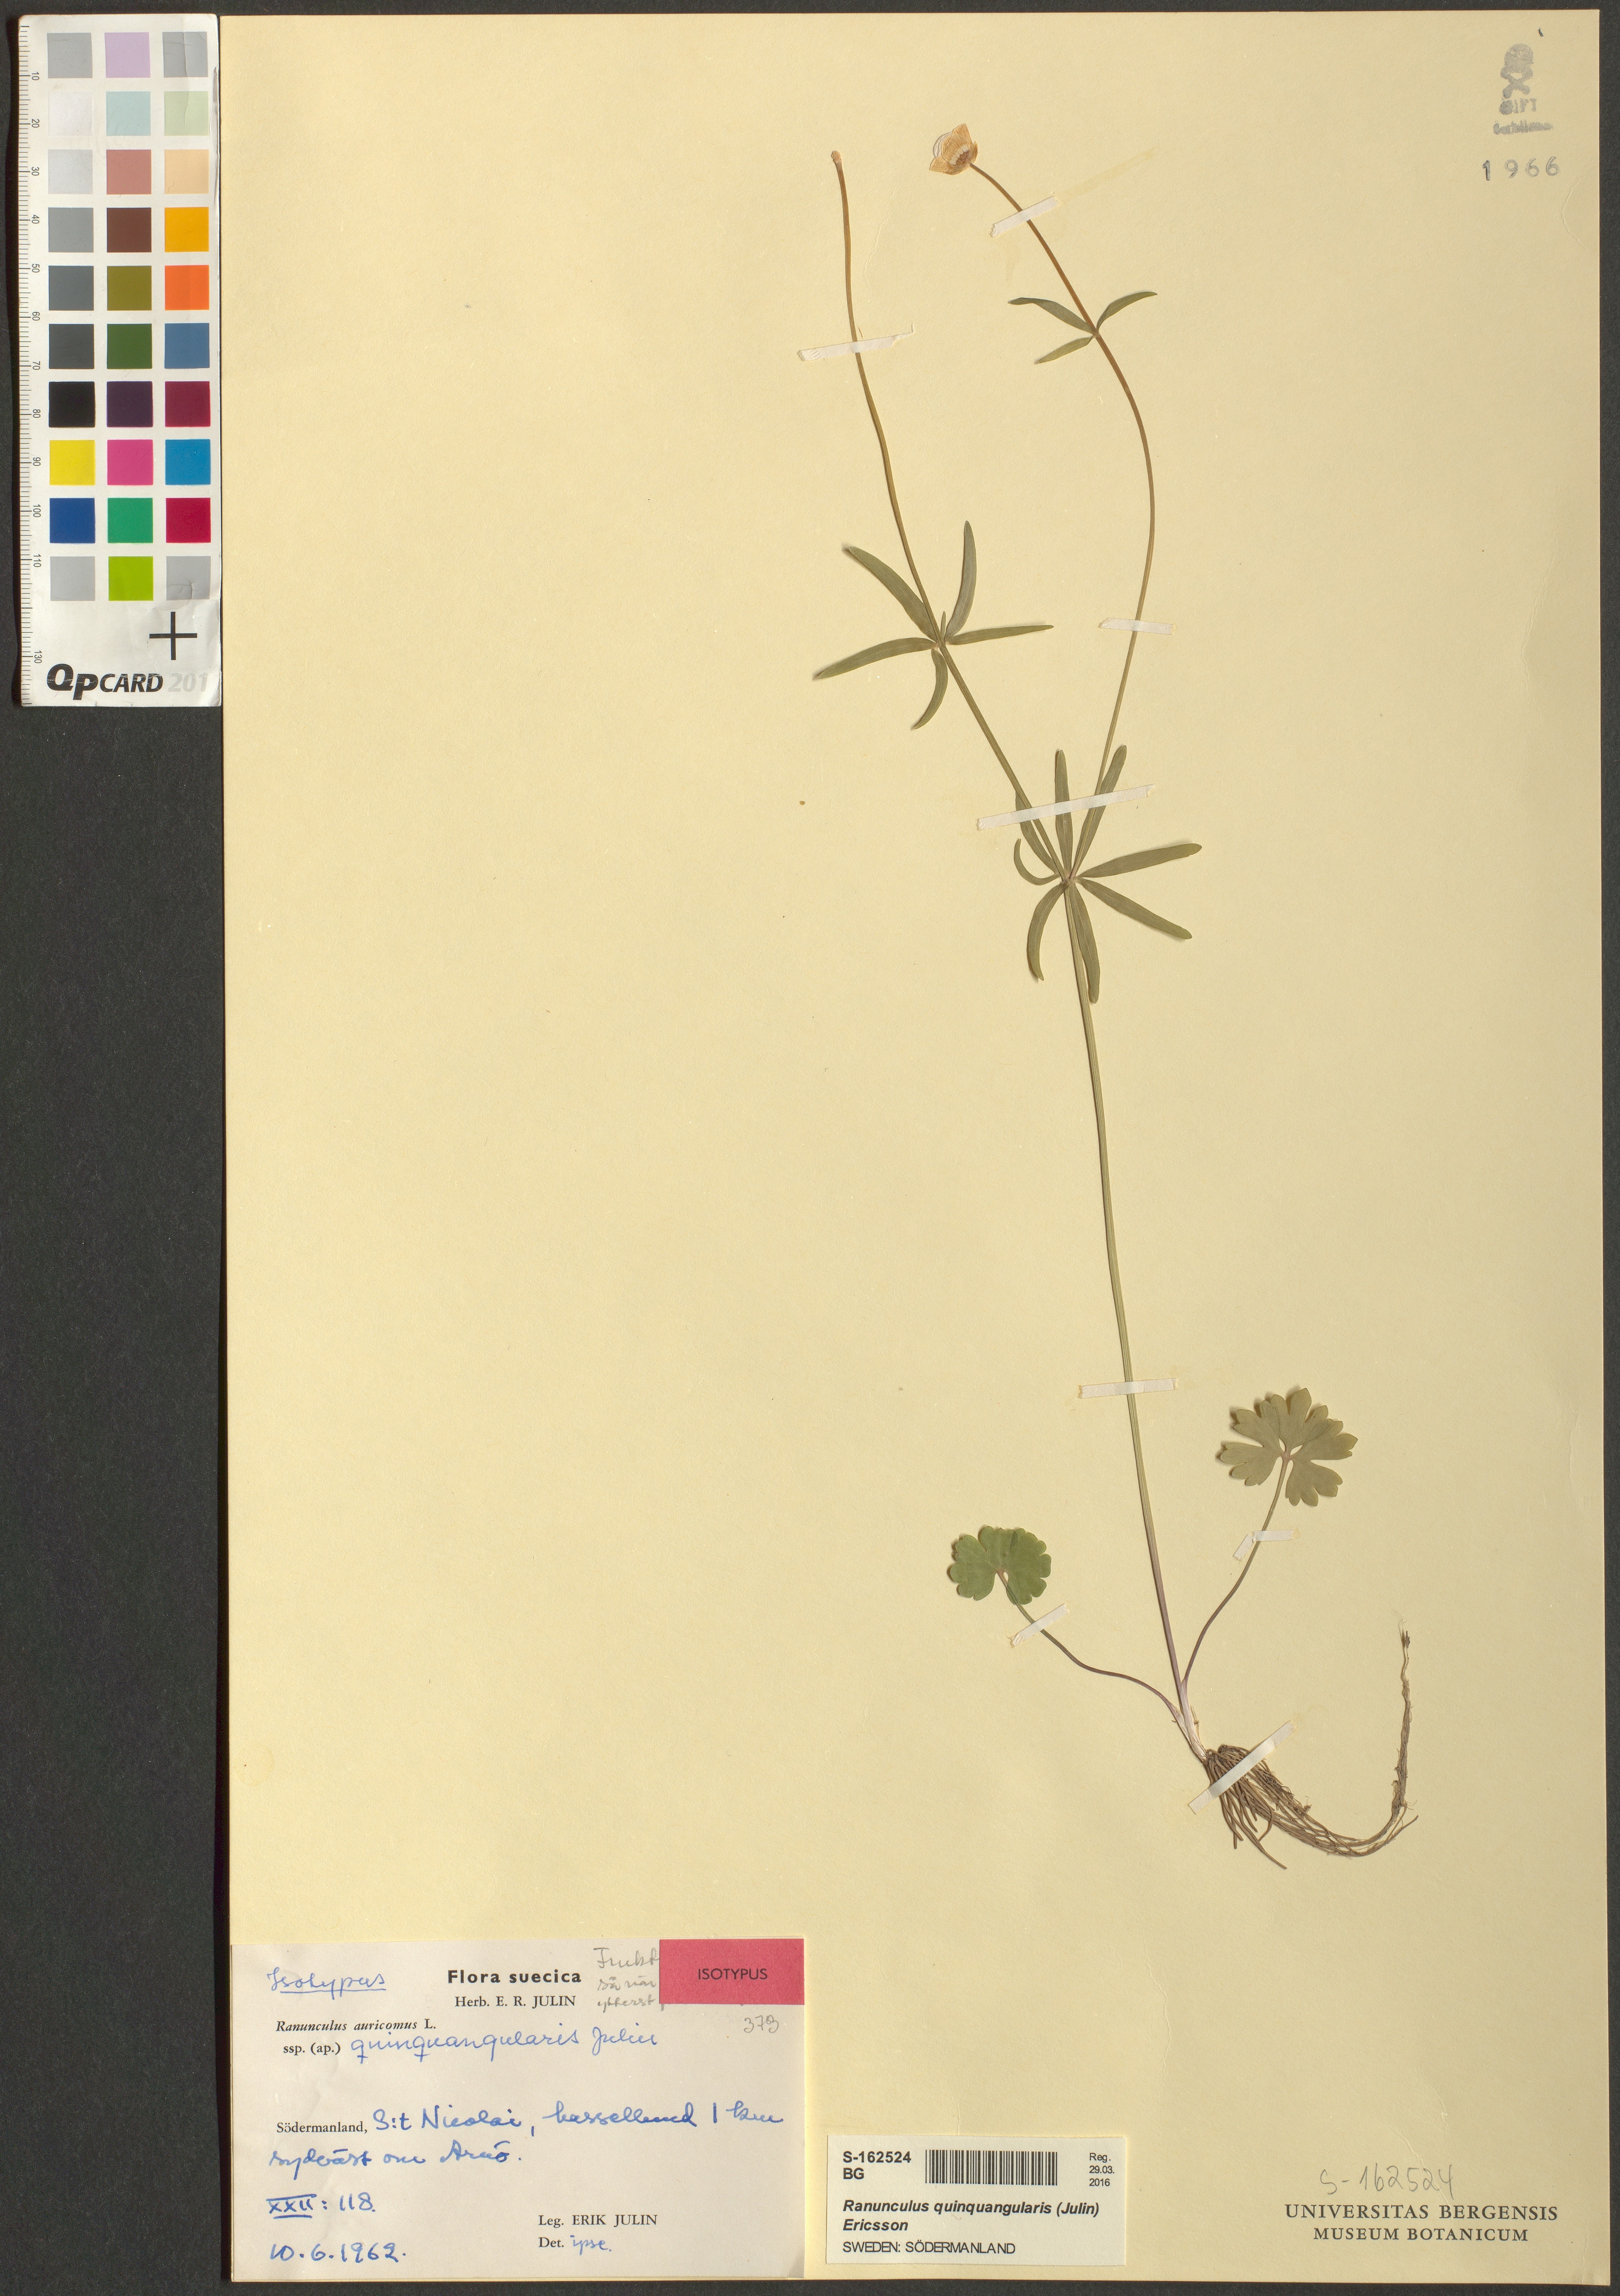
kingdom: Plantae
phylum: Tracheophyta
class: Magnoliopsida
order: Ranunculales
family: Ranunculaceae
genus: Ranunculus
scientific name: Ranunculus quinquangularis
